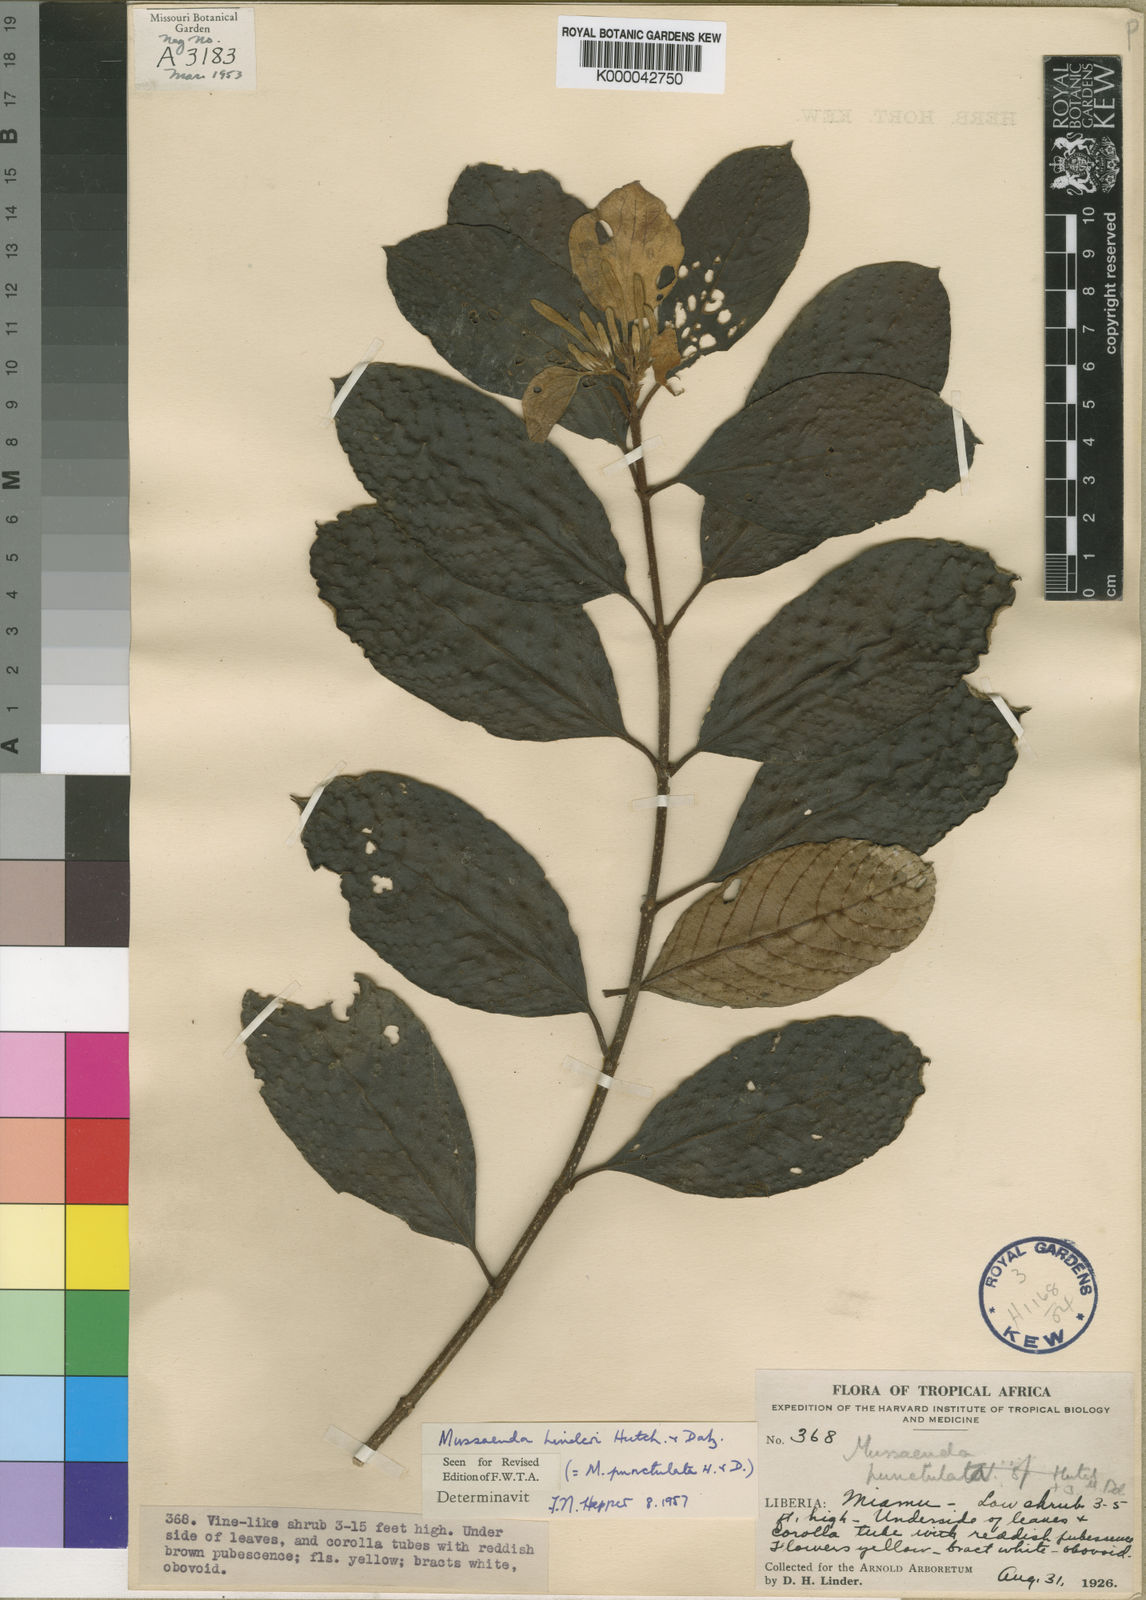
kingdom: Plantae
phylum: Tracheophyta
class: Magnoliopsida
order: Gentianales
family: Rubiaceae
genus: Mussaenda
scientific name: Mussaenda linderi
